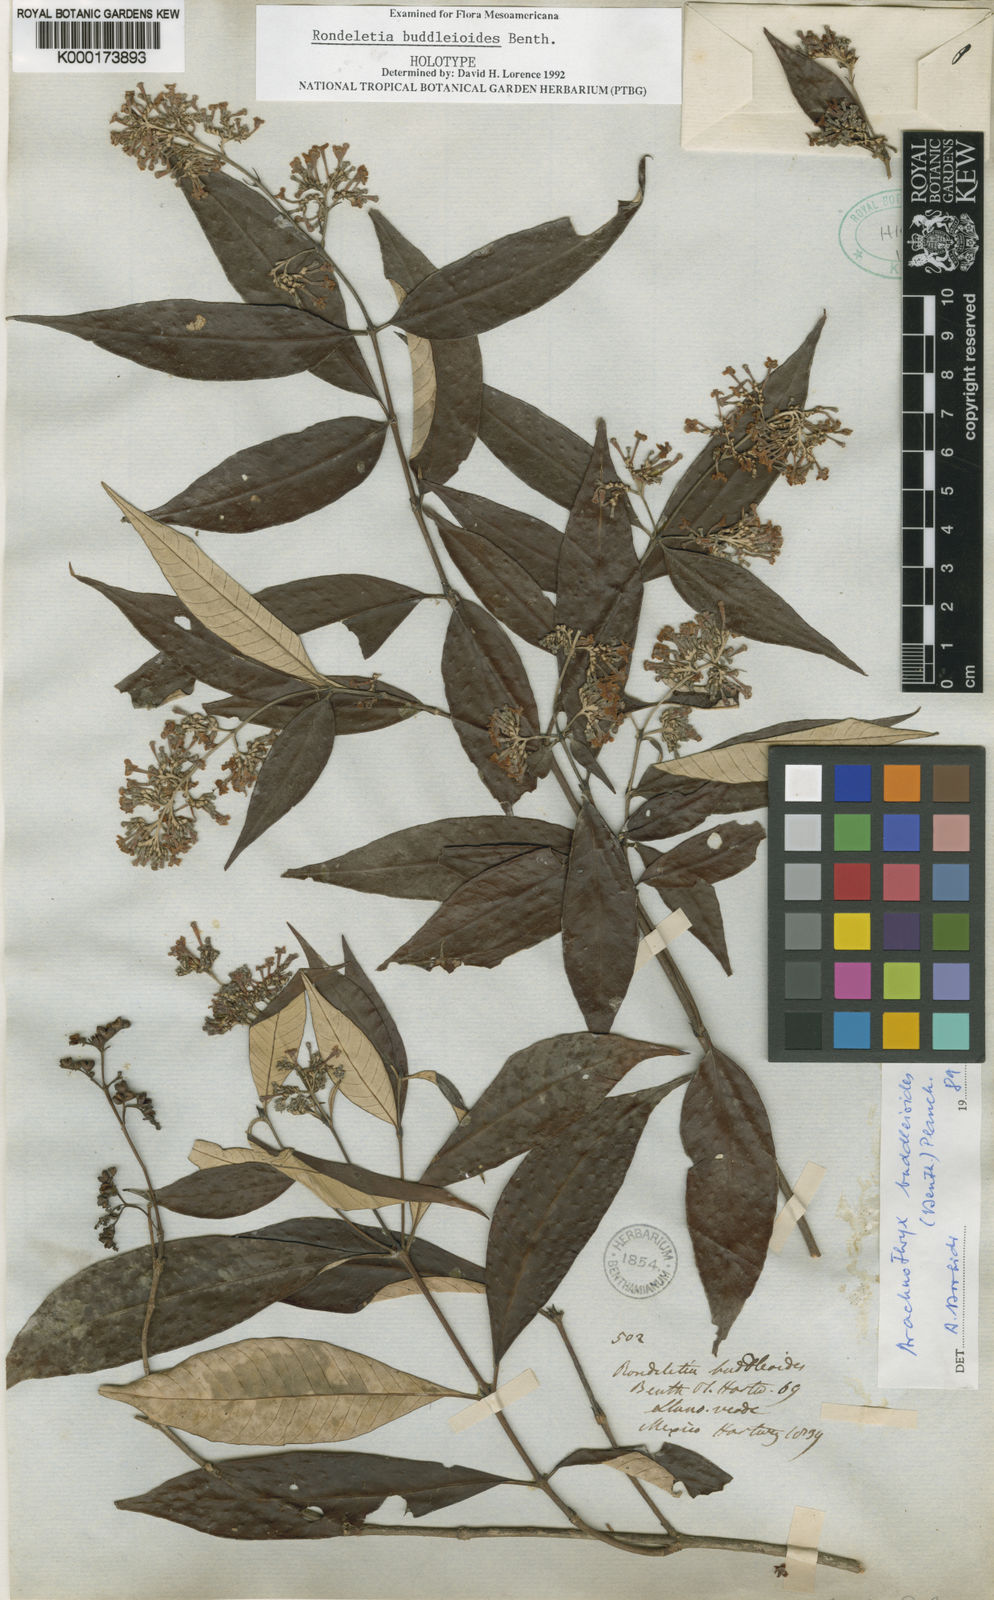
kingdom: Plantae
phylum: Tracheophyta
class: Magnoliopsida
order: Gentianales
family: Rubiaceae
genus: Arachnothryx
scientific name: Arachnothryx buddleioides
